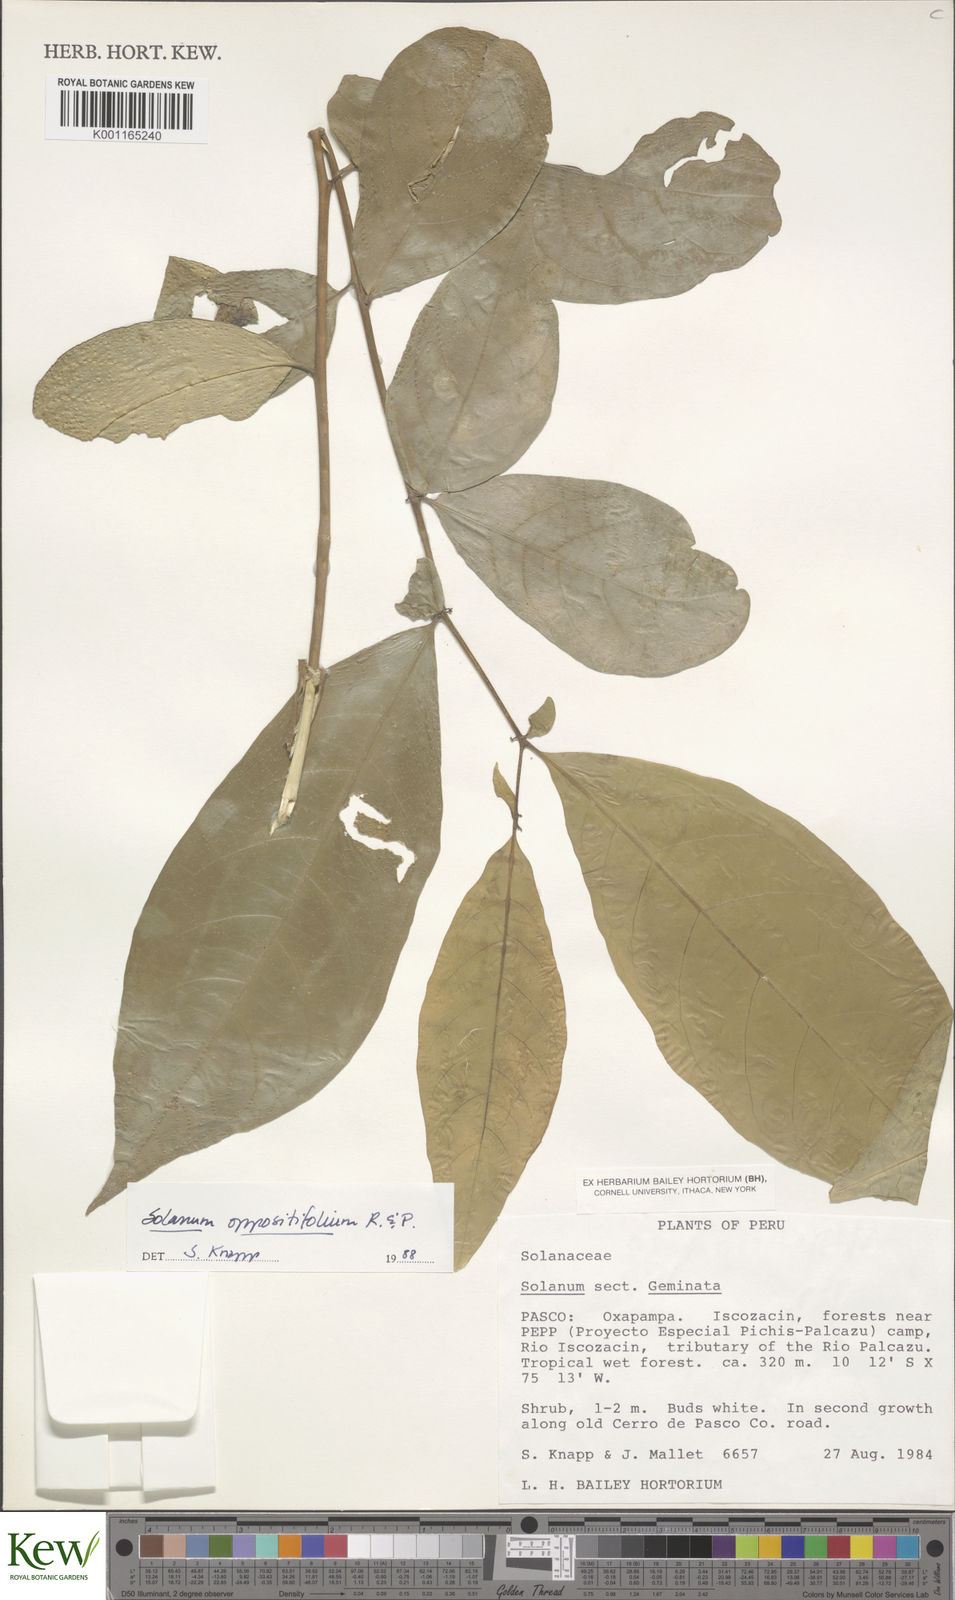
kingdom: Plantae
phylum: Tracheophyta
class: Magnoliopsida
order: Solanales
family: Solanaceae
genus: Solanum
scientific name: Solanum oppositifolium
